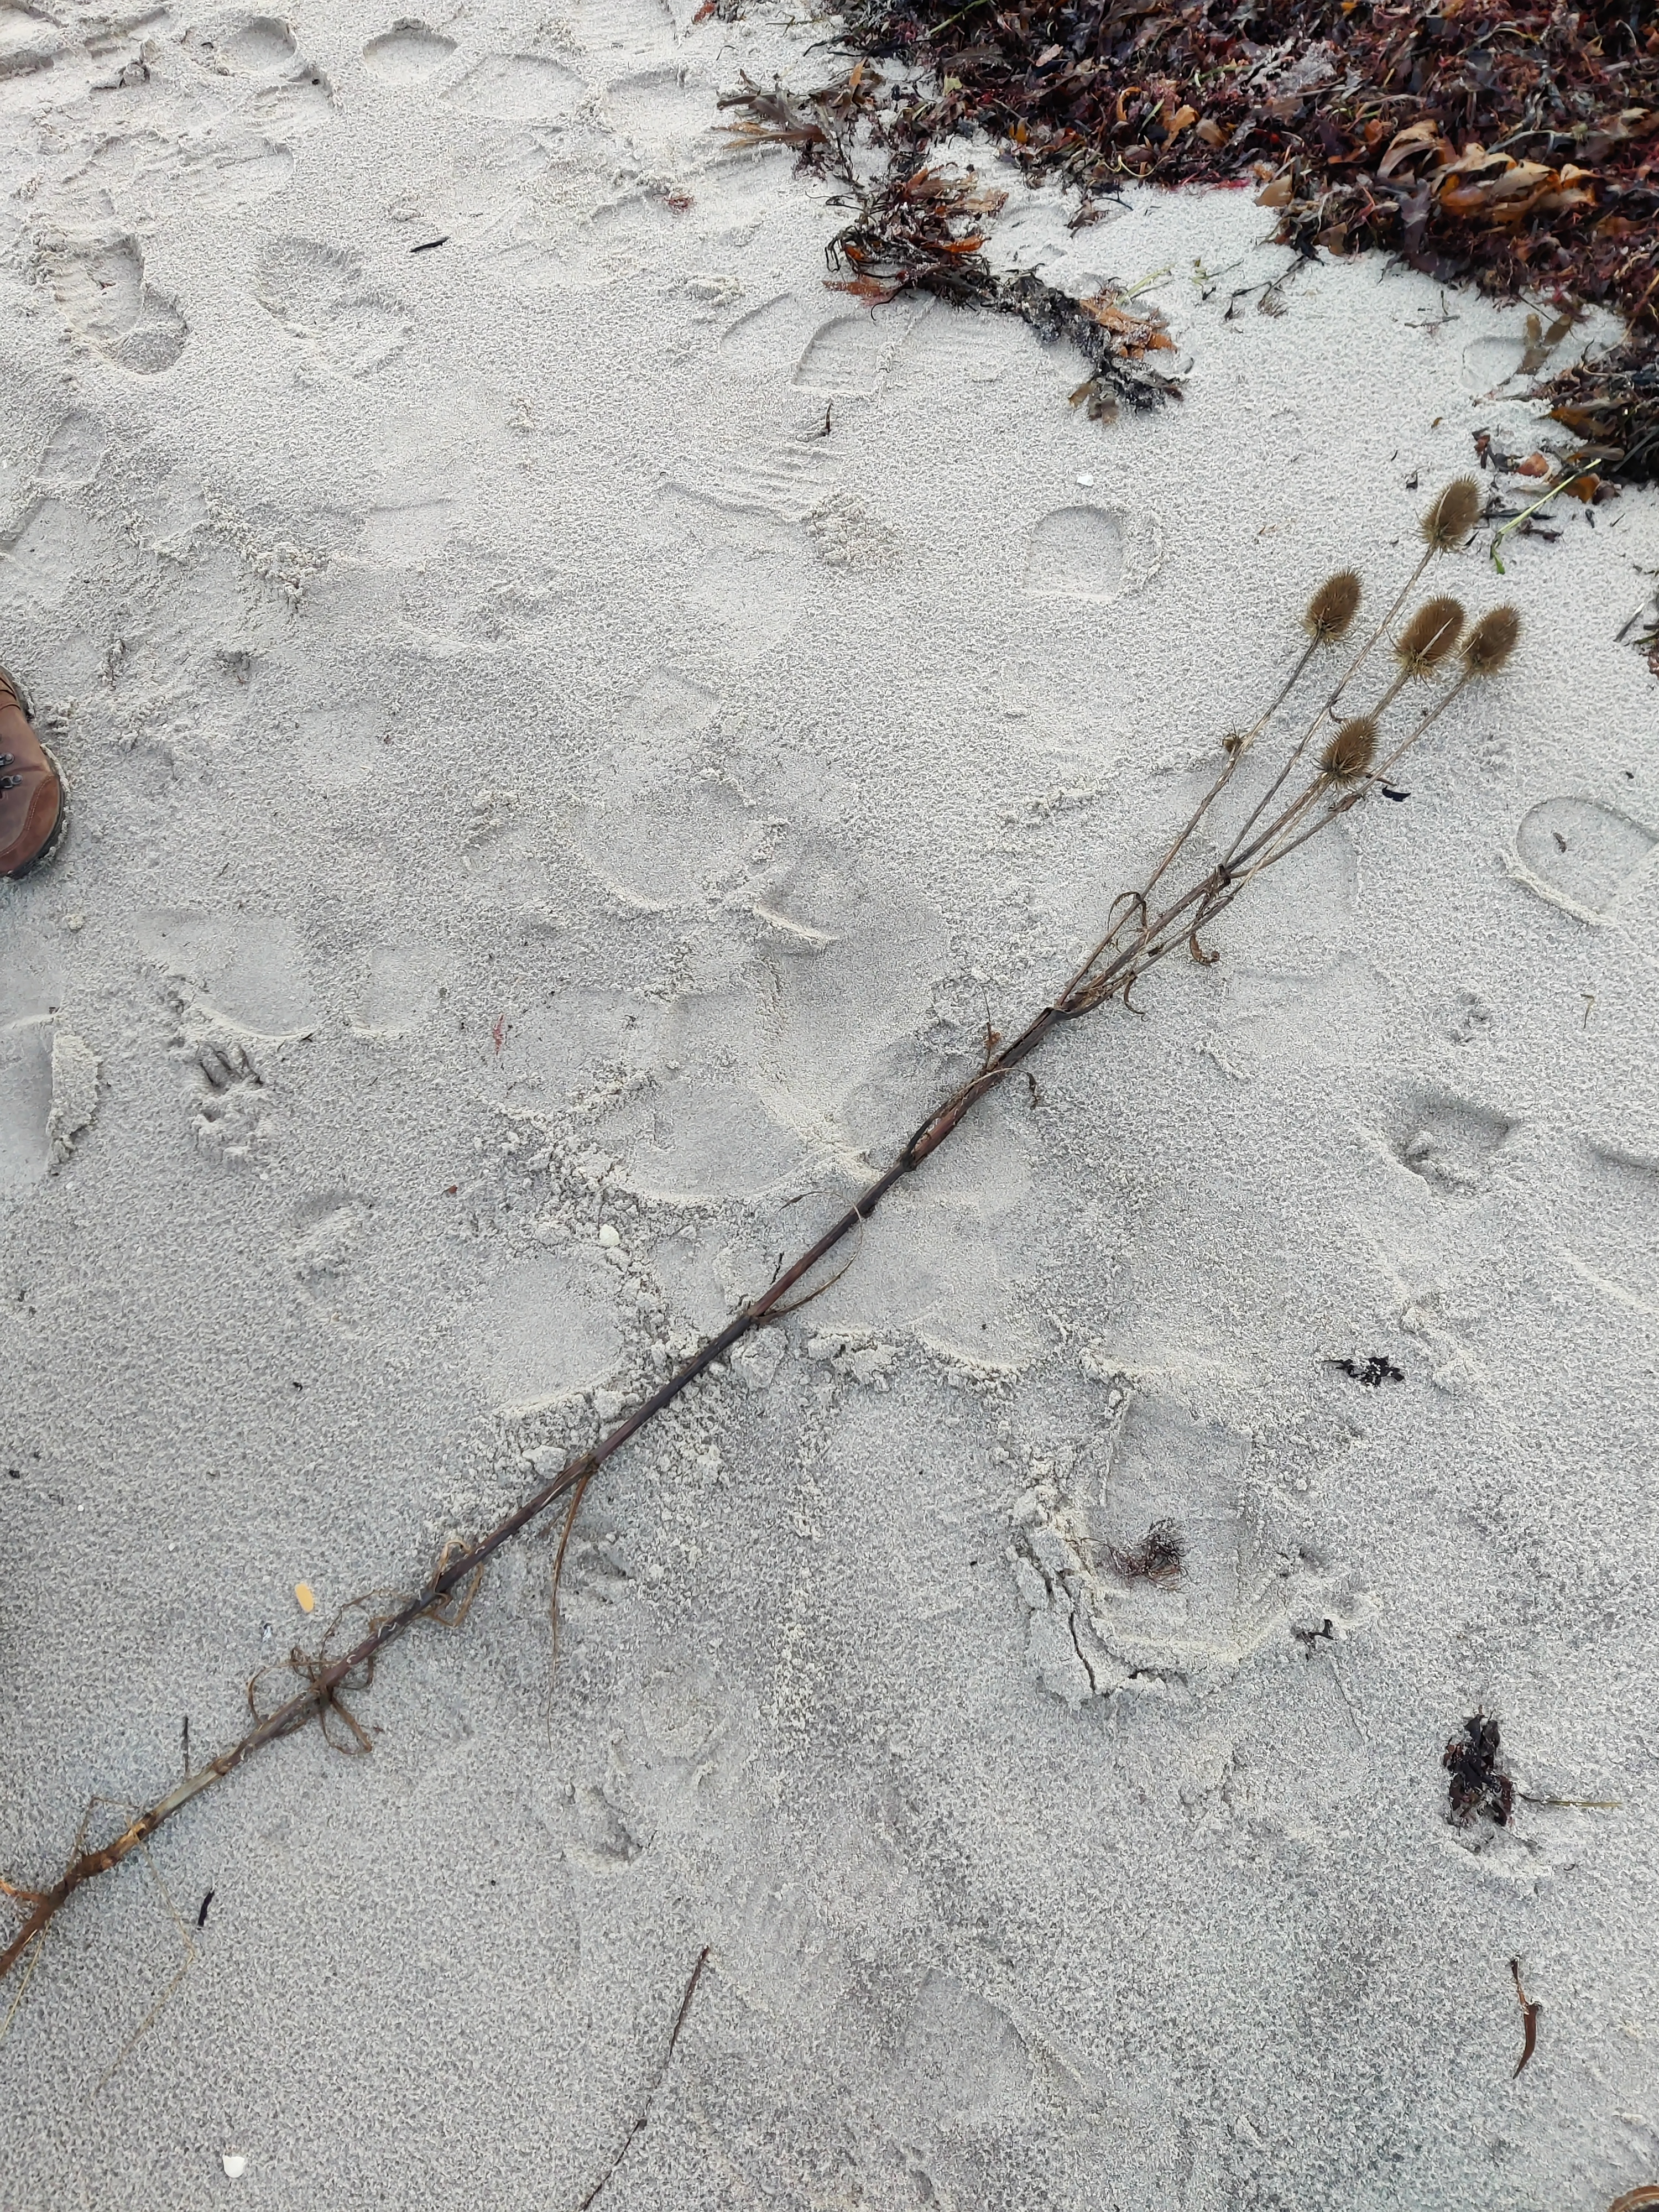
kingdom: Plantae
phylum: Tracheophyta
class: Magnoliopsida
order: Dipsacales
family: Caprifoliaceae
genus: Dipsacus
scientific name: Dipsacus fullonum
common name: Gærde-kartebolle
